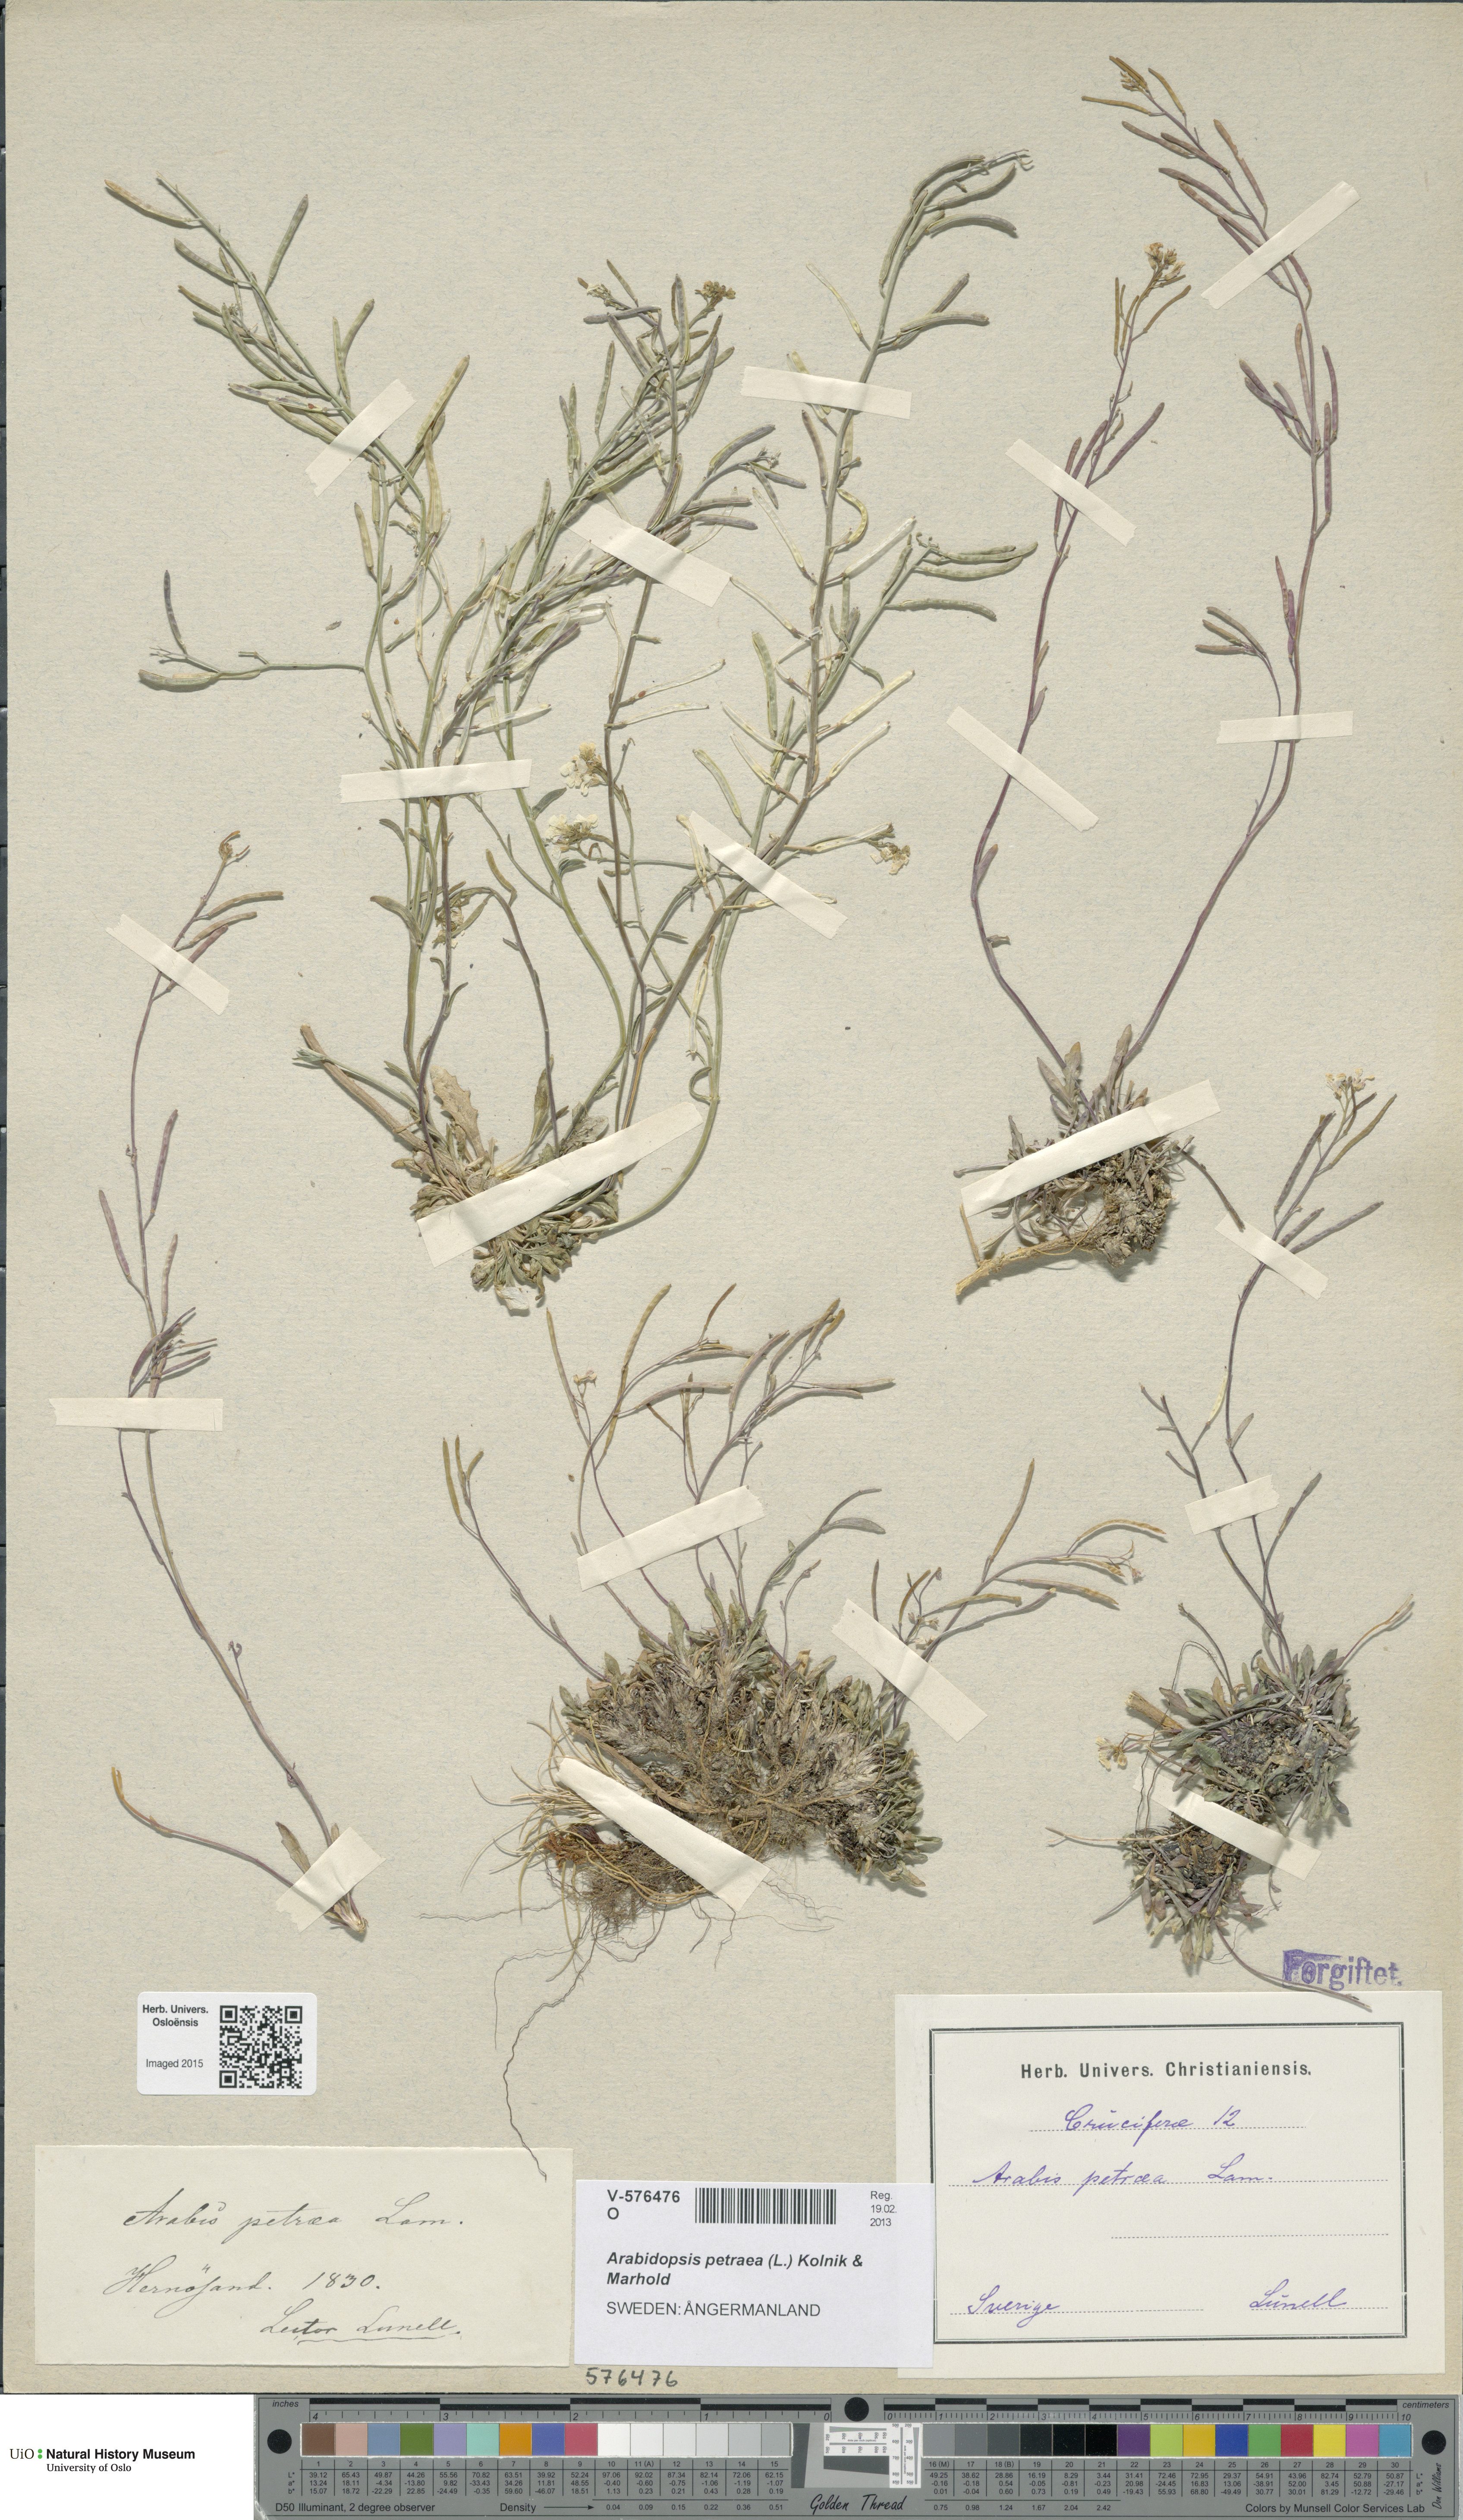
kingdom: Plantae
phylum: Tracheophyta
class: Magnoliopsida
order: Brassicales
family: Brassicaceae
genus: Arabidopsis
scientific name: Arabidopsis petraea
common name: Northern rock-cress
